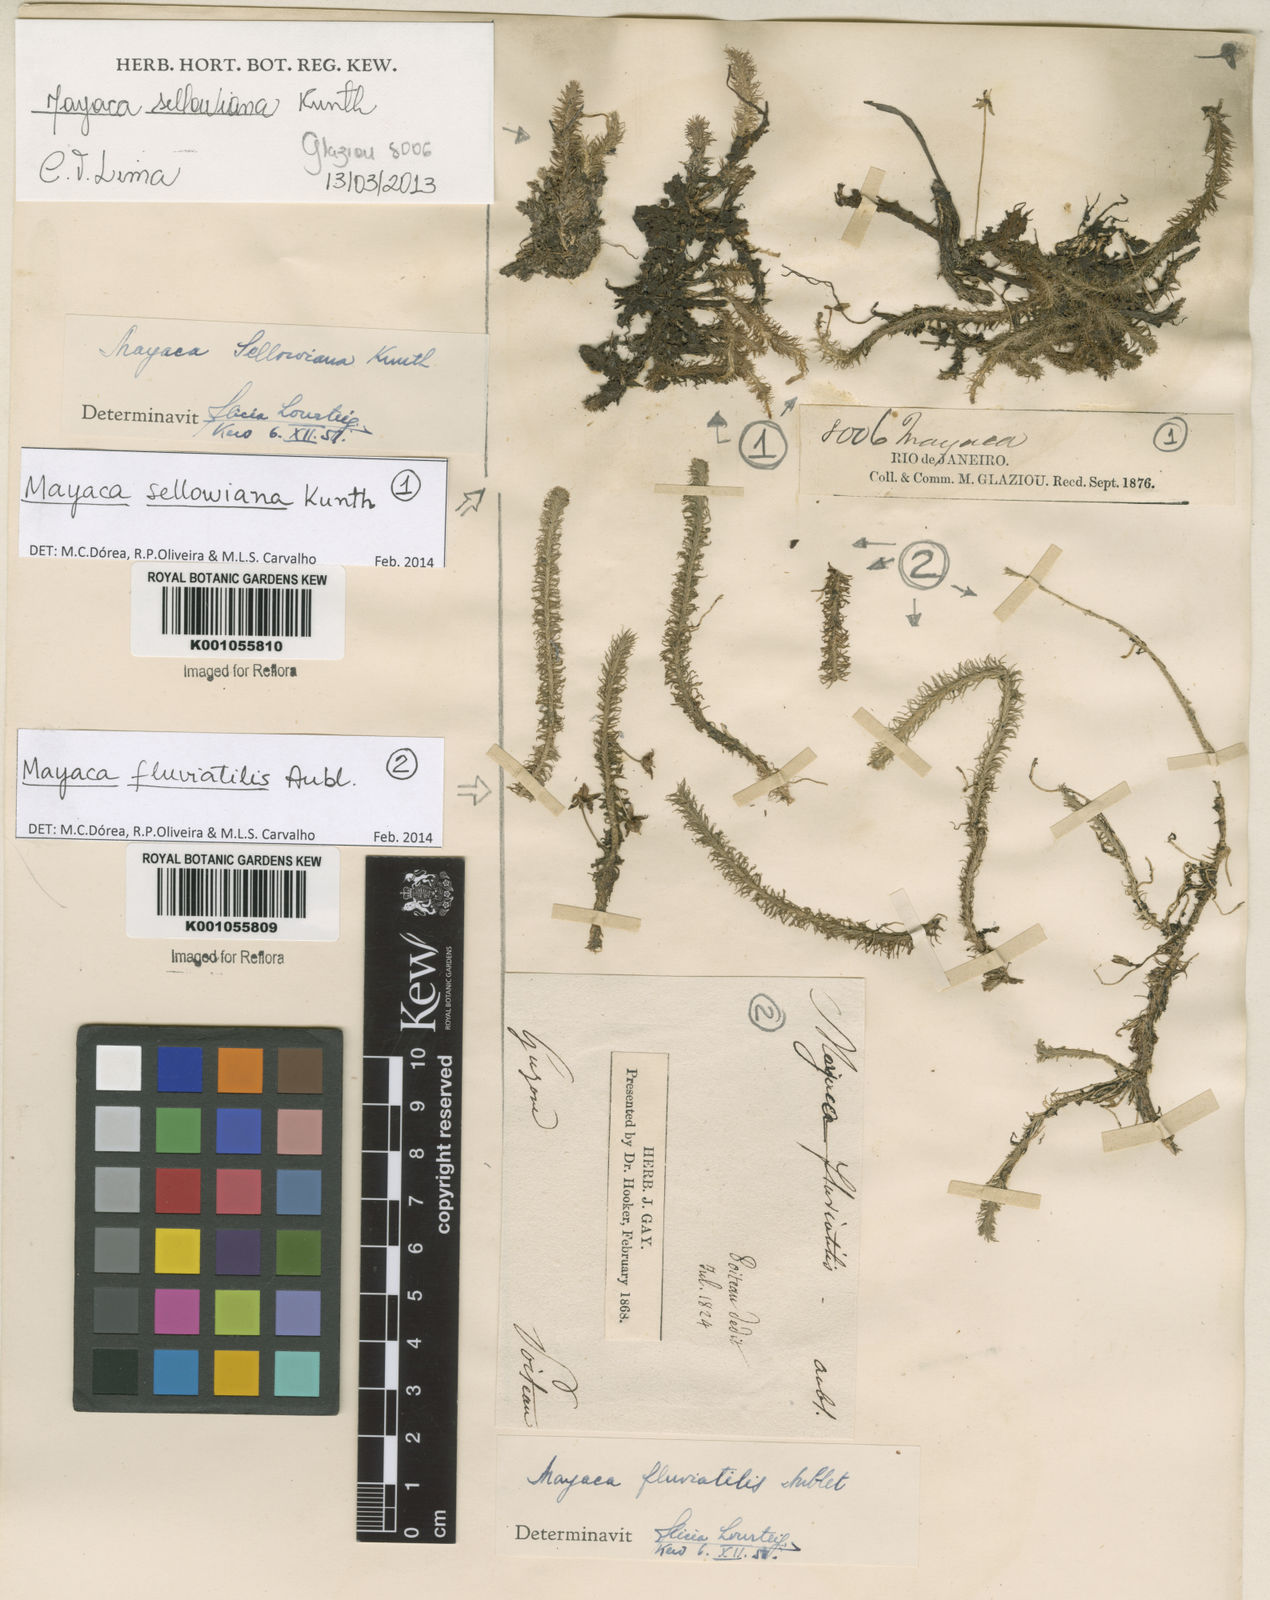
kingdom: Plantae
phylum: Tracheophyta
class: Liliopsida
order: Poales
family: Mayacaceae
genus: Mayaca
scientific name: Mayaca sellowiana
